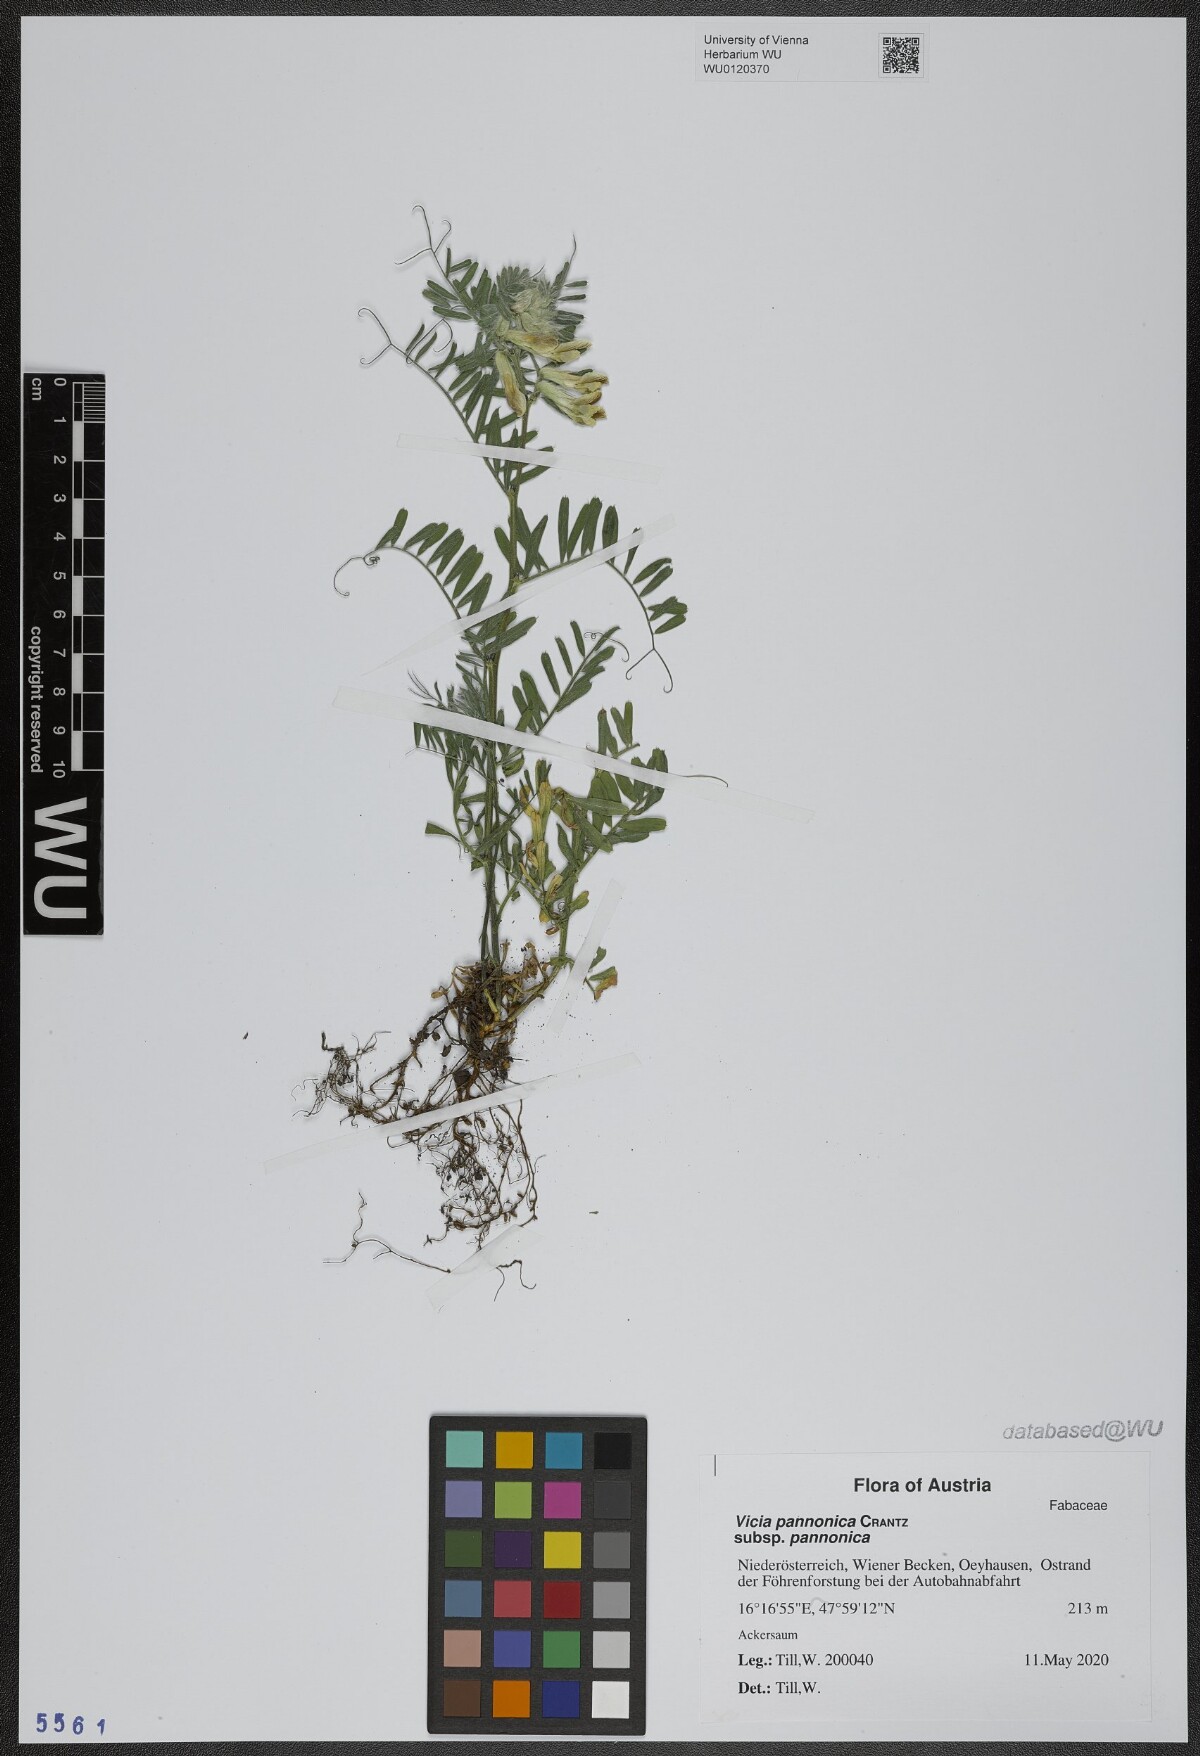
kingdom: Plantae
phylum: Tracheophyta
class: Magnoliopsida
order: Fabales
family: Fabaceae
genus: Vicia
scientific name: Vicia pannonica
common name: Hungarian vetch
